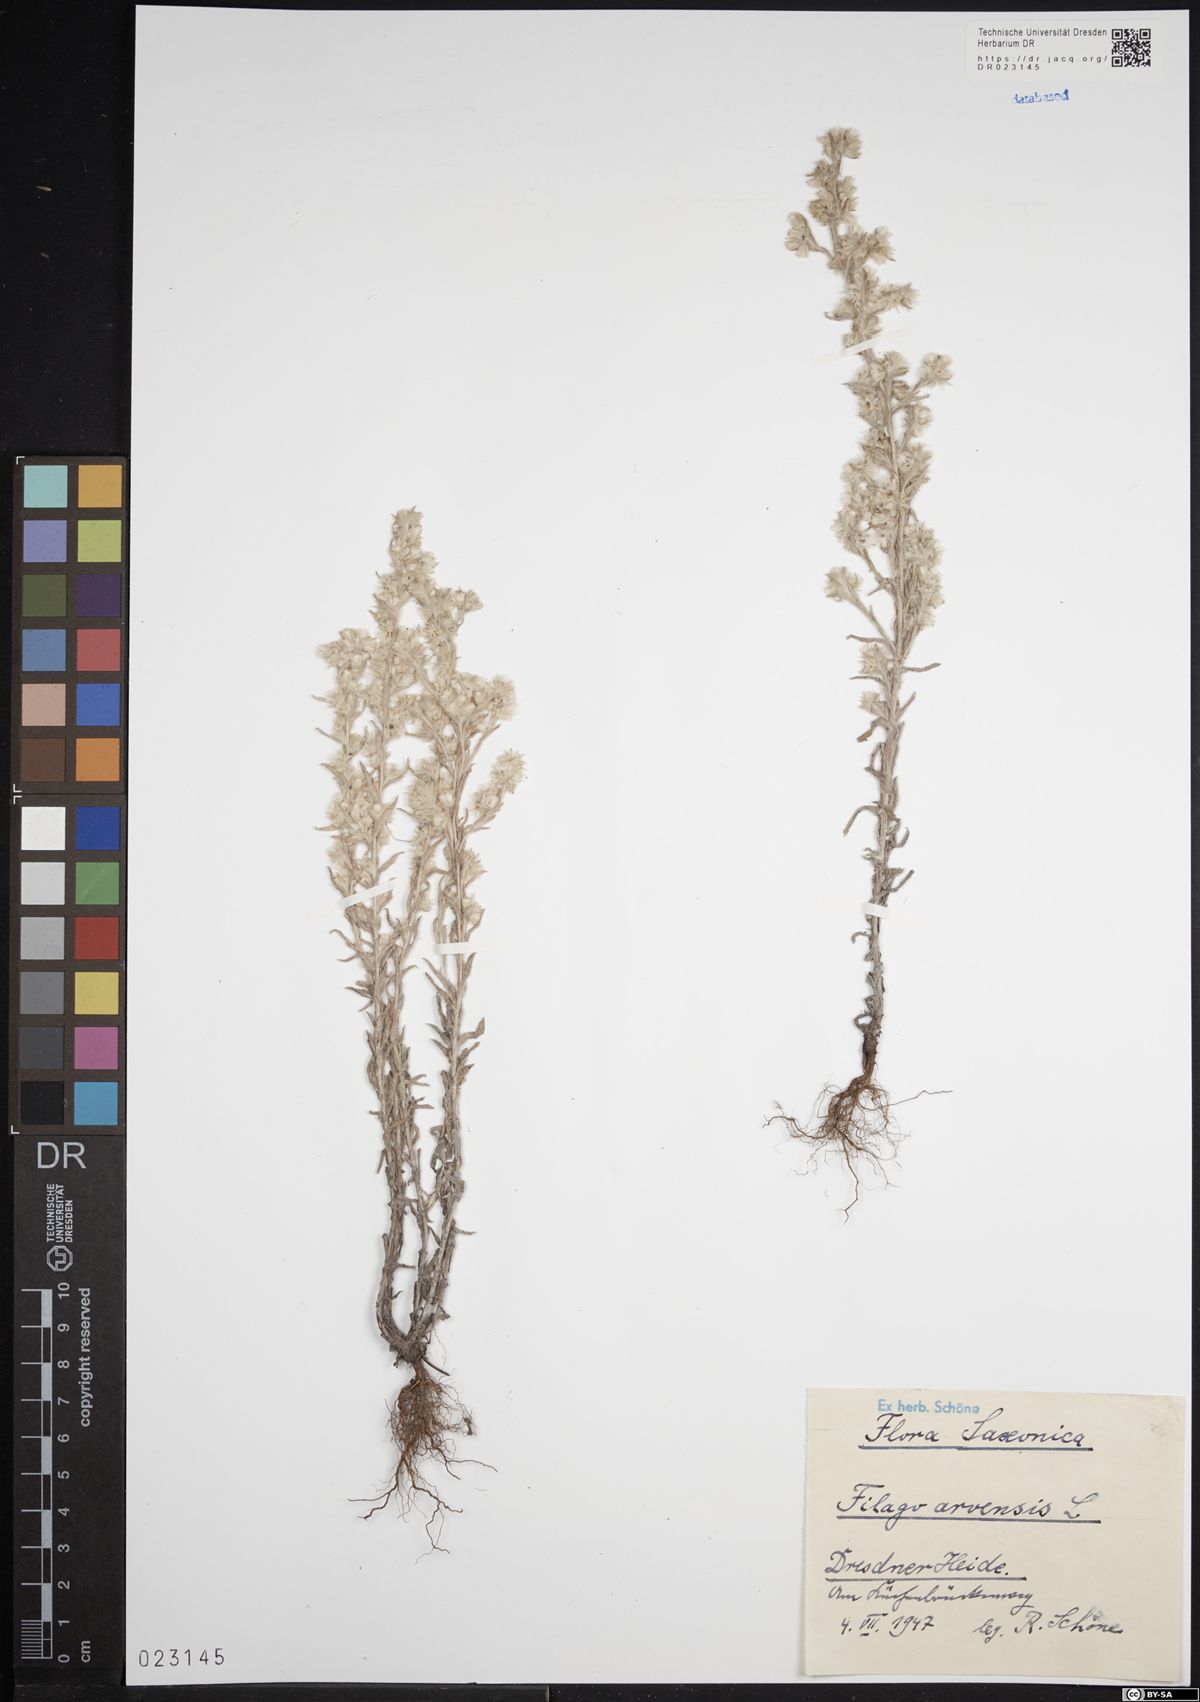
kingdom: Plantae
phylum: Tracheophyta
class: Magnoliopsida
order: Asterales
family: Asteraceae
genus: Filago
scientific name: Filago arvensis
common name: Field cudweed
